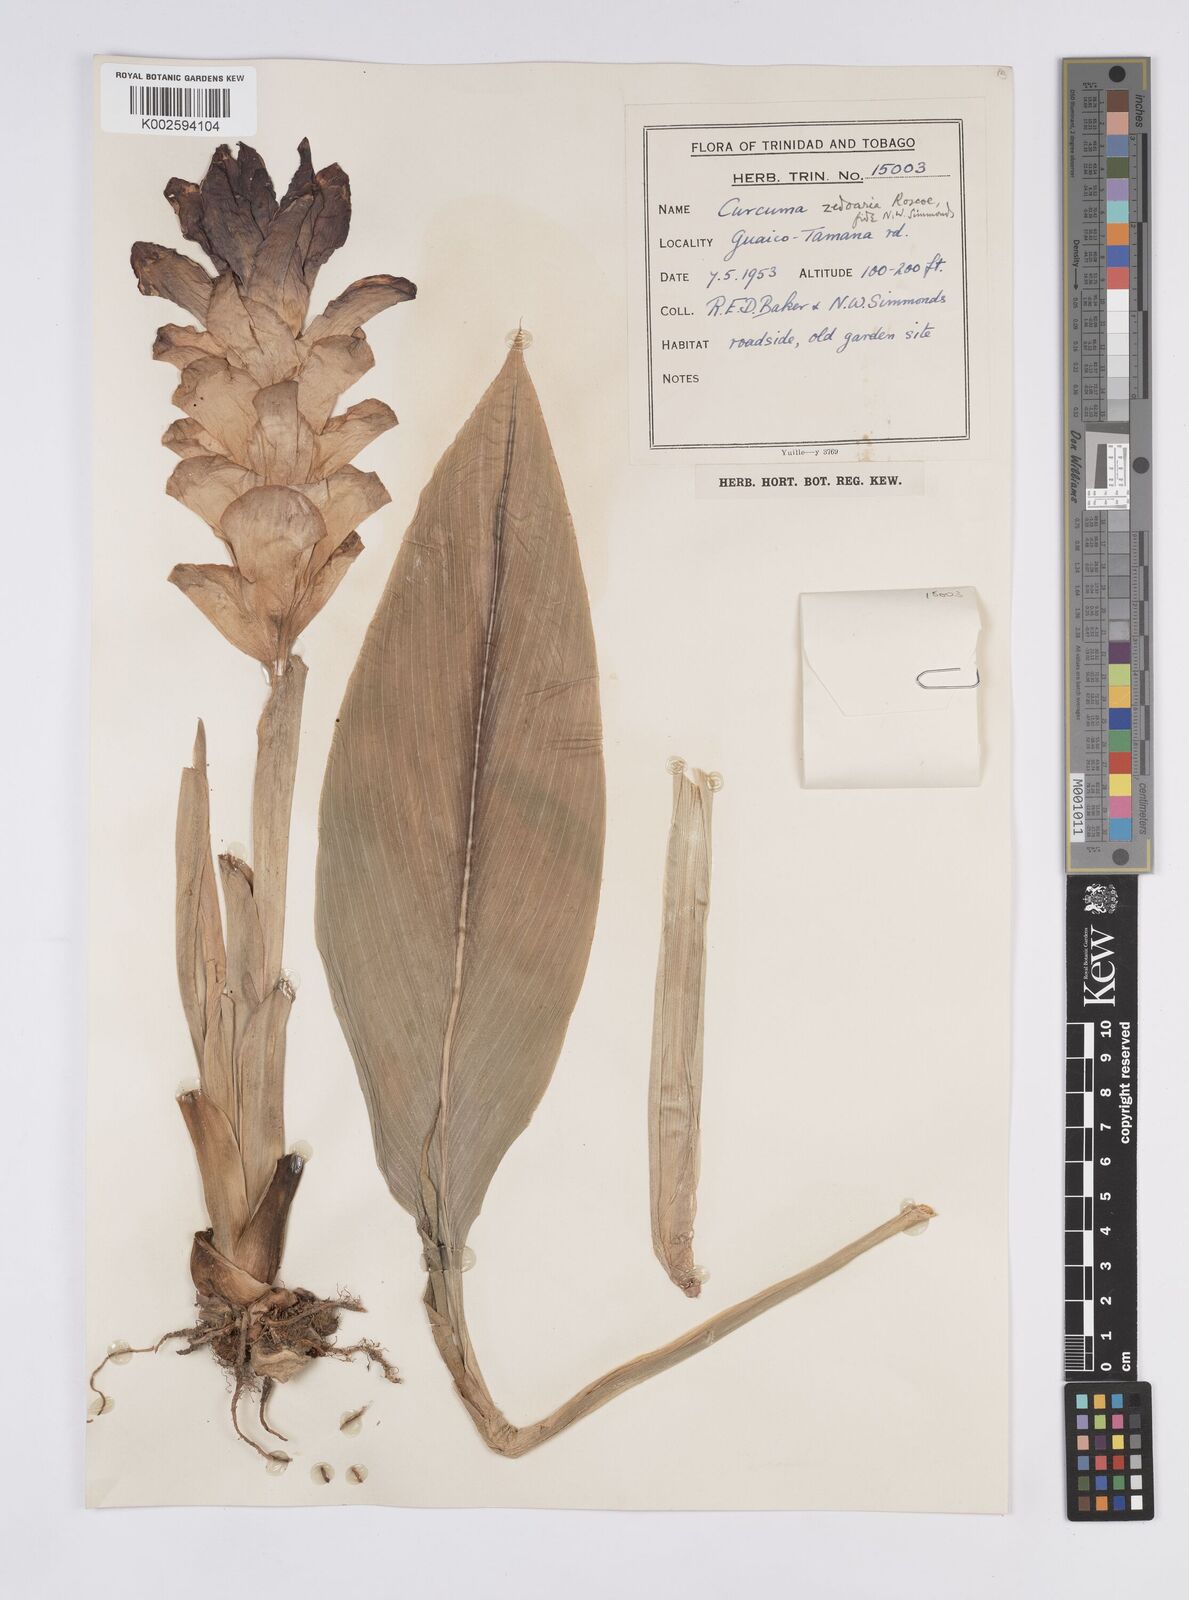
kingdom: Plantae
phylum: Tracheophyta
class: Liliopsida
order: Zingiberales
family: Zingiberaceae
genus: Curcuma
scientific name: Curcuma zedoaria
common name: Zedoary
